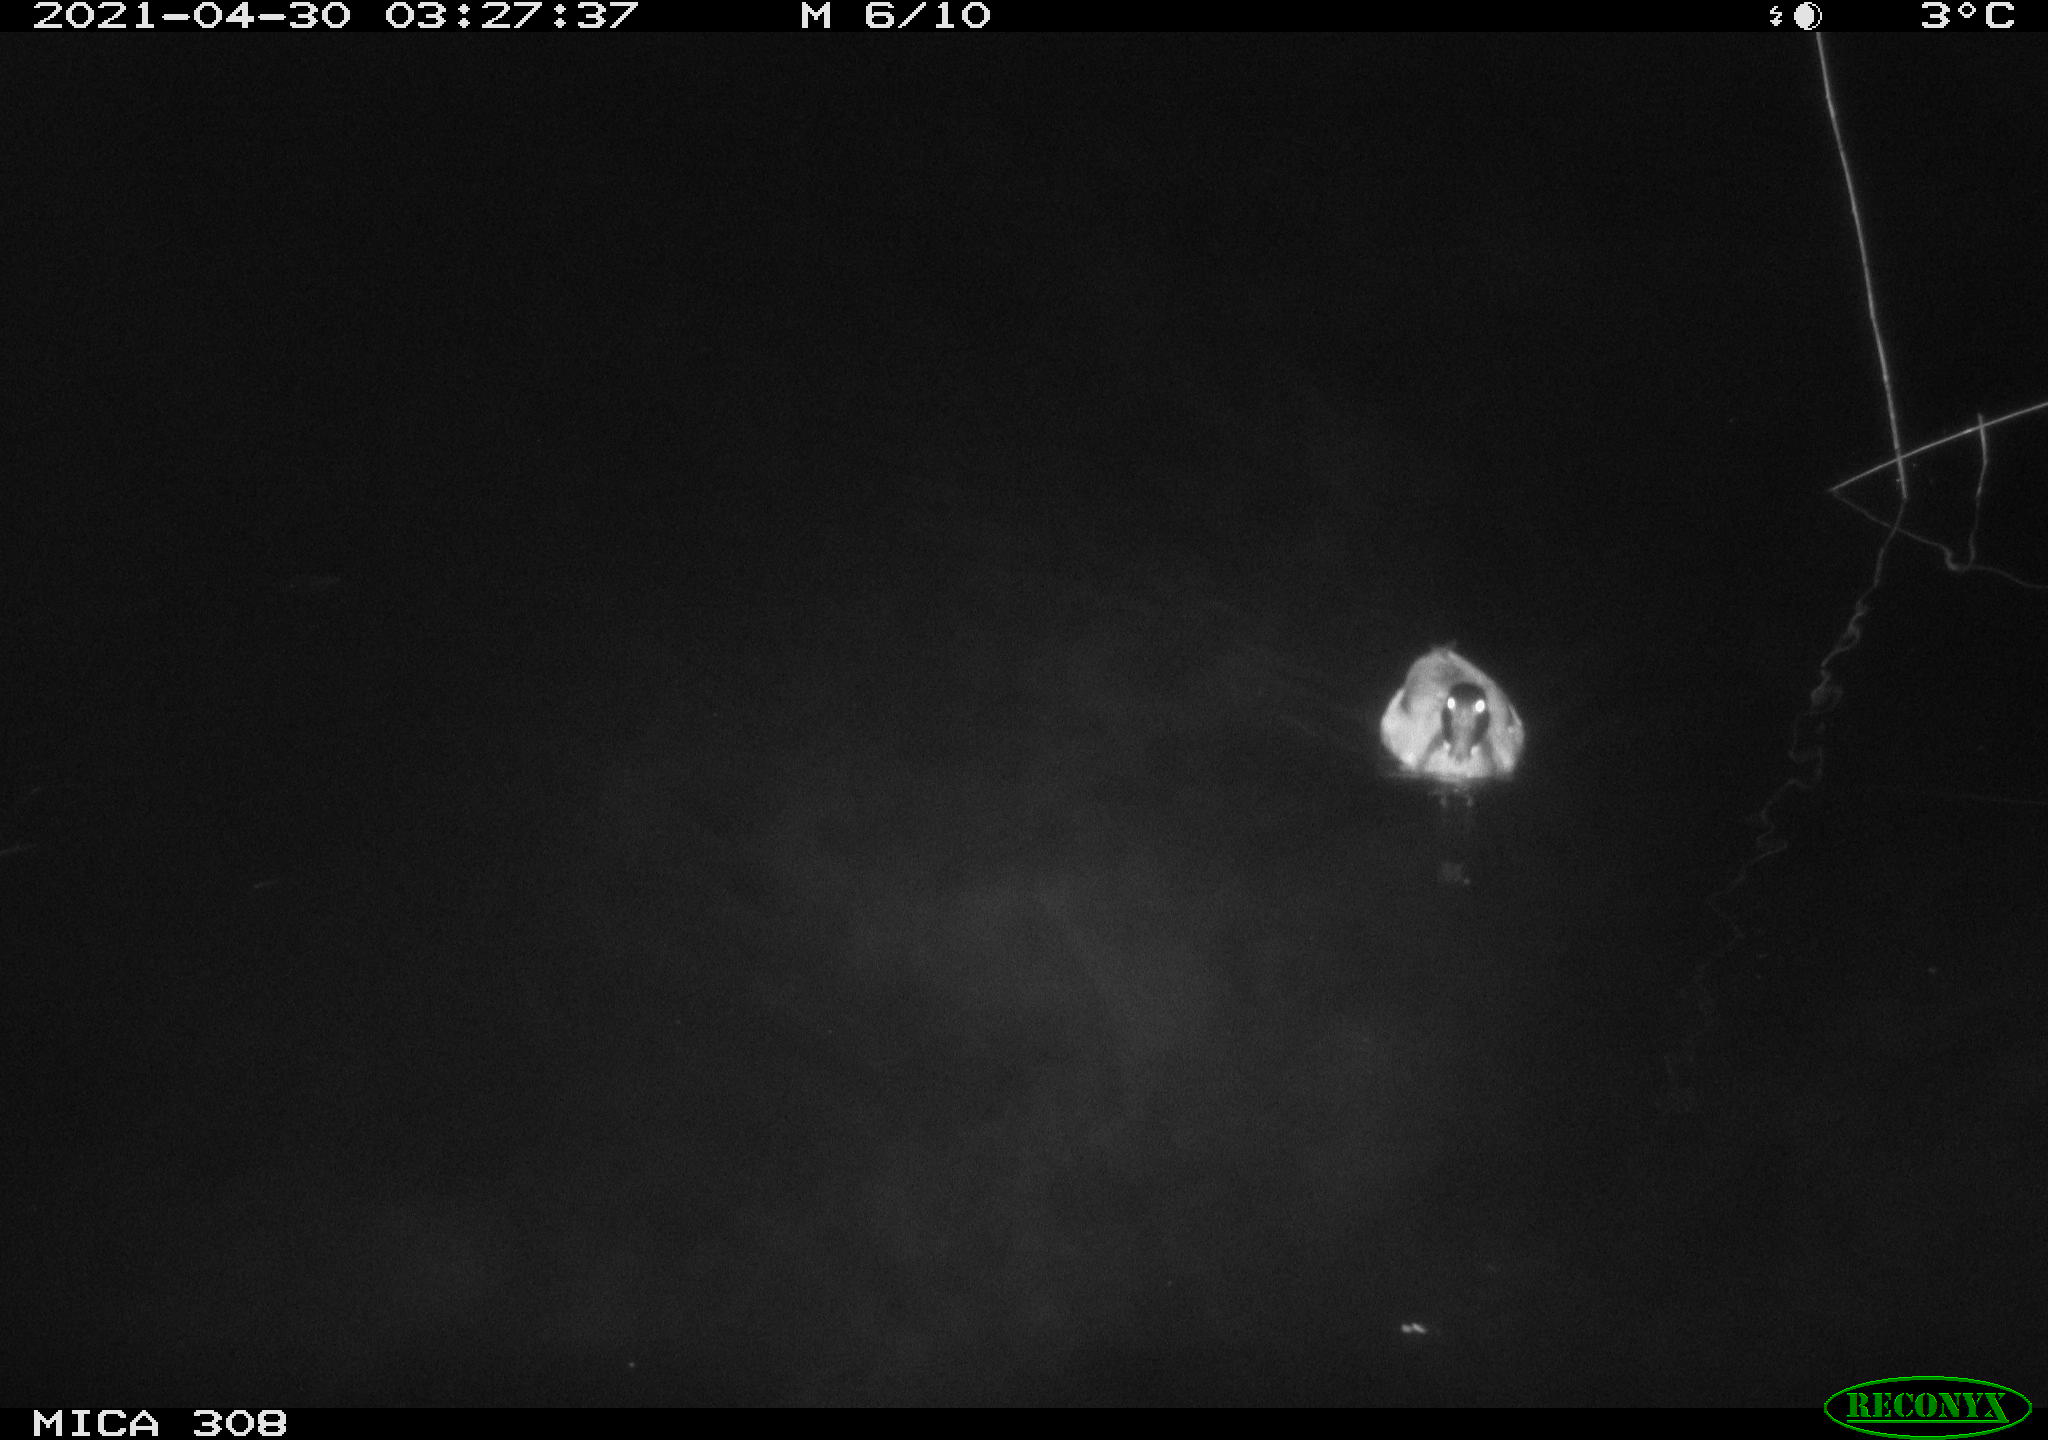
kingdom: Animalia
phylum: Chordata
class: Aves
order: Anseriformes
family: Anatidae
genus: Anas
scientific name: Anas platyrhynchos
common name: Mallard
